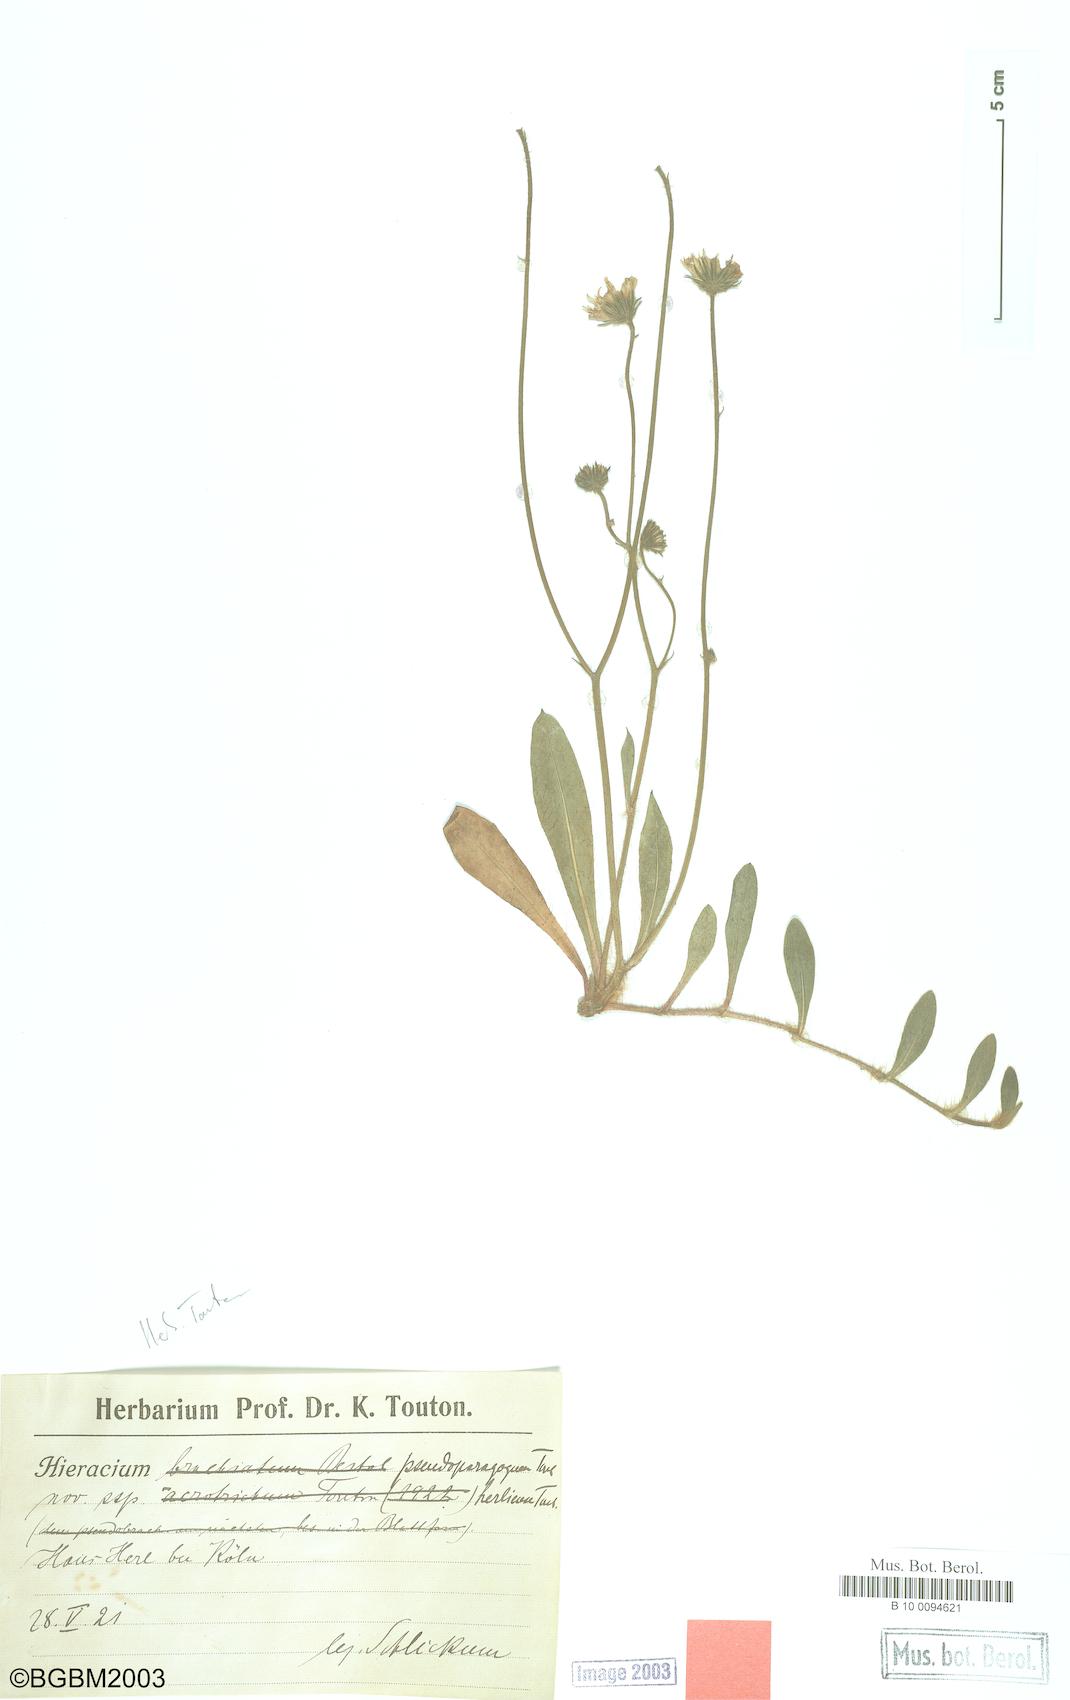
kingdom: Plantae
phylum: Tracheophyta
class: Magnoliopsida
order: Asterales
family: Asteraceae
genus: Pilosella
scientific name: Pilosella pseudoparagoga
